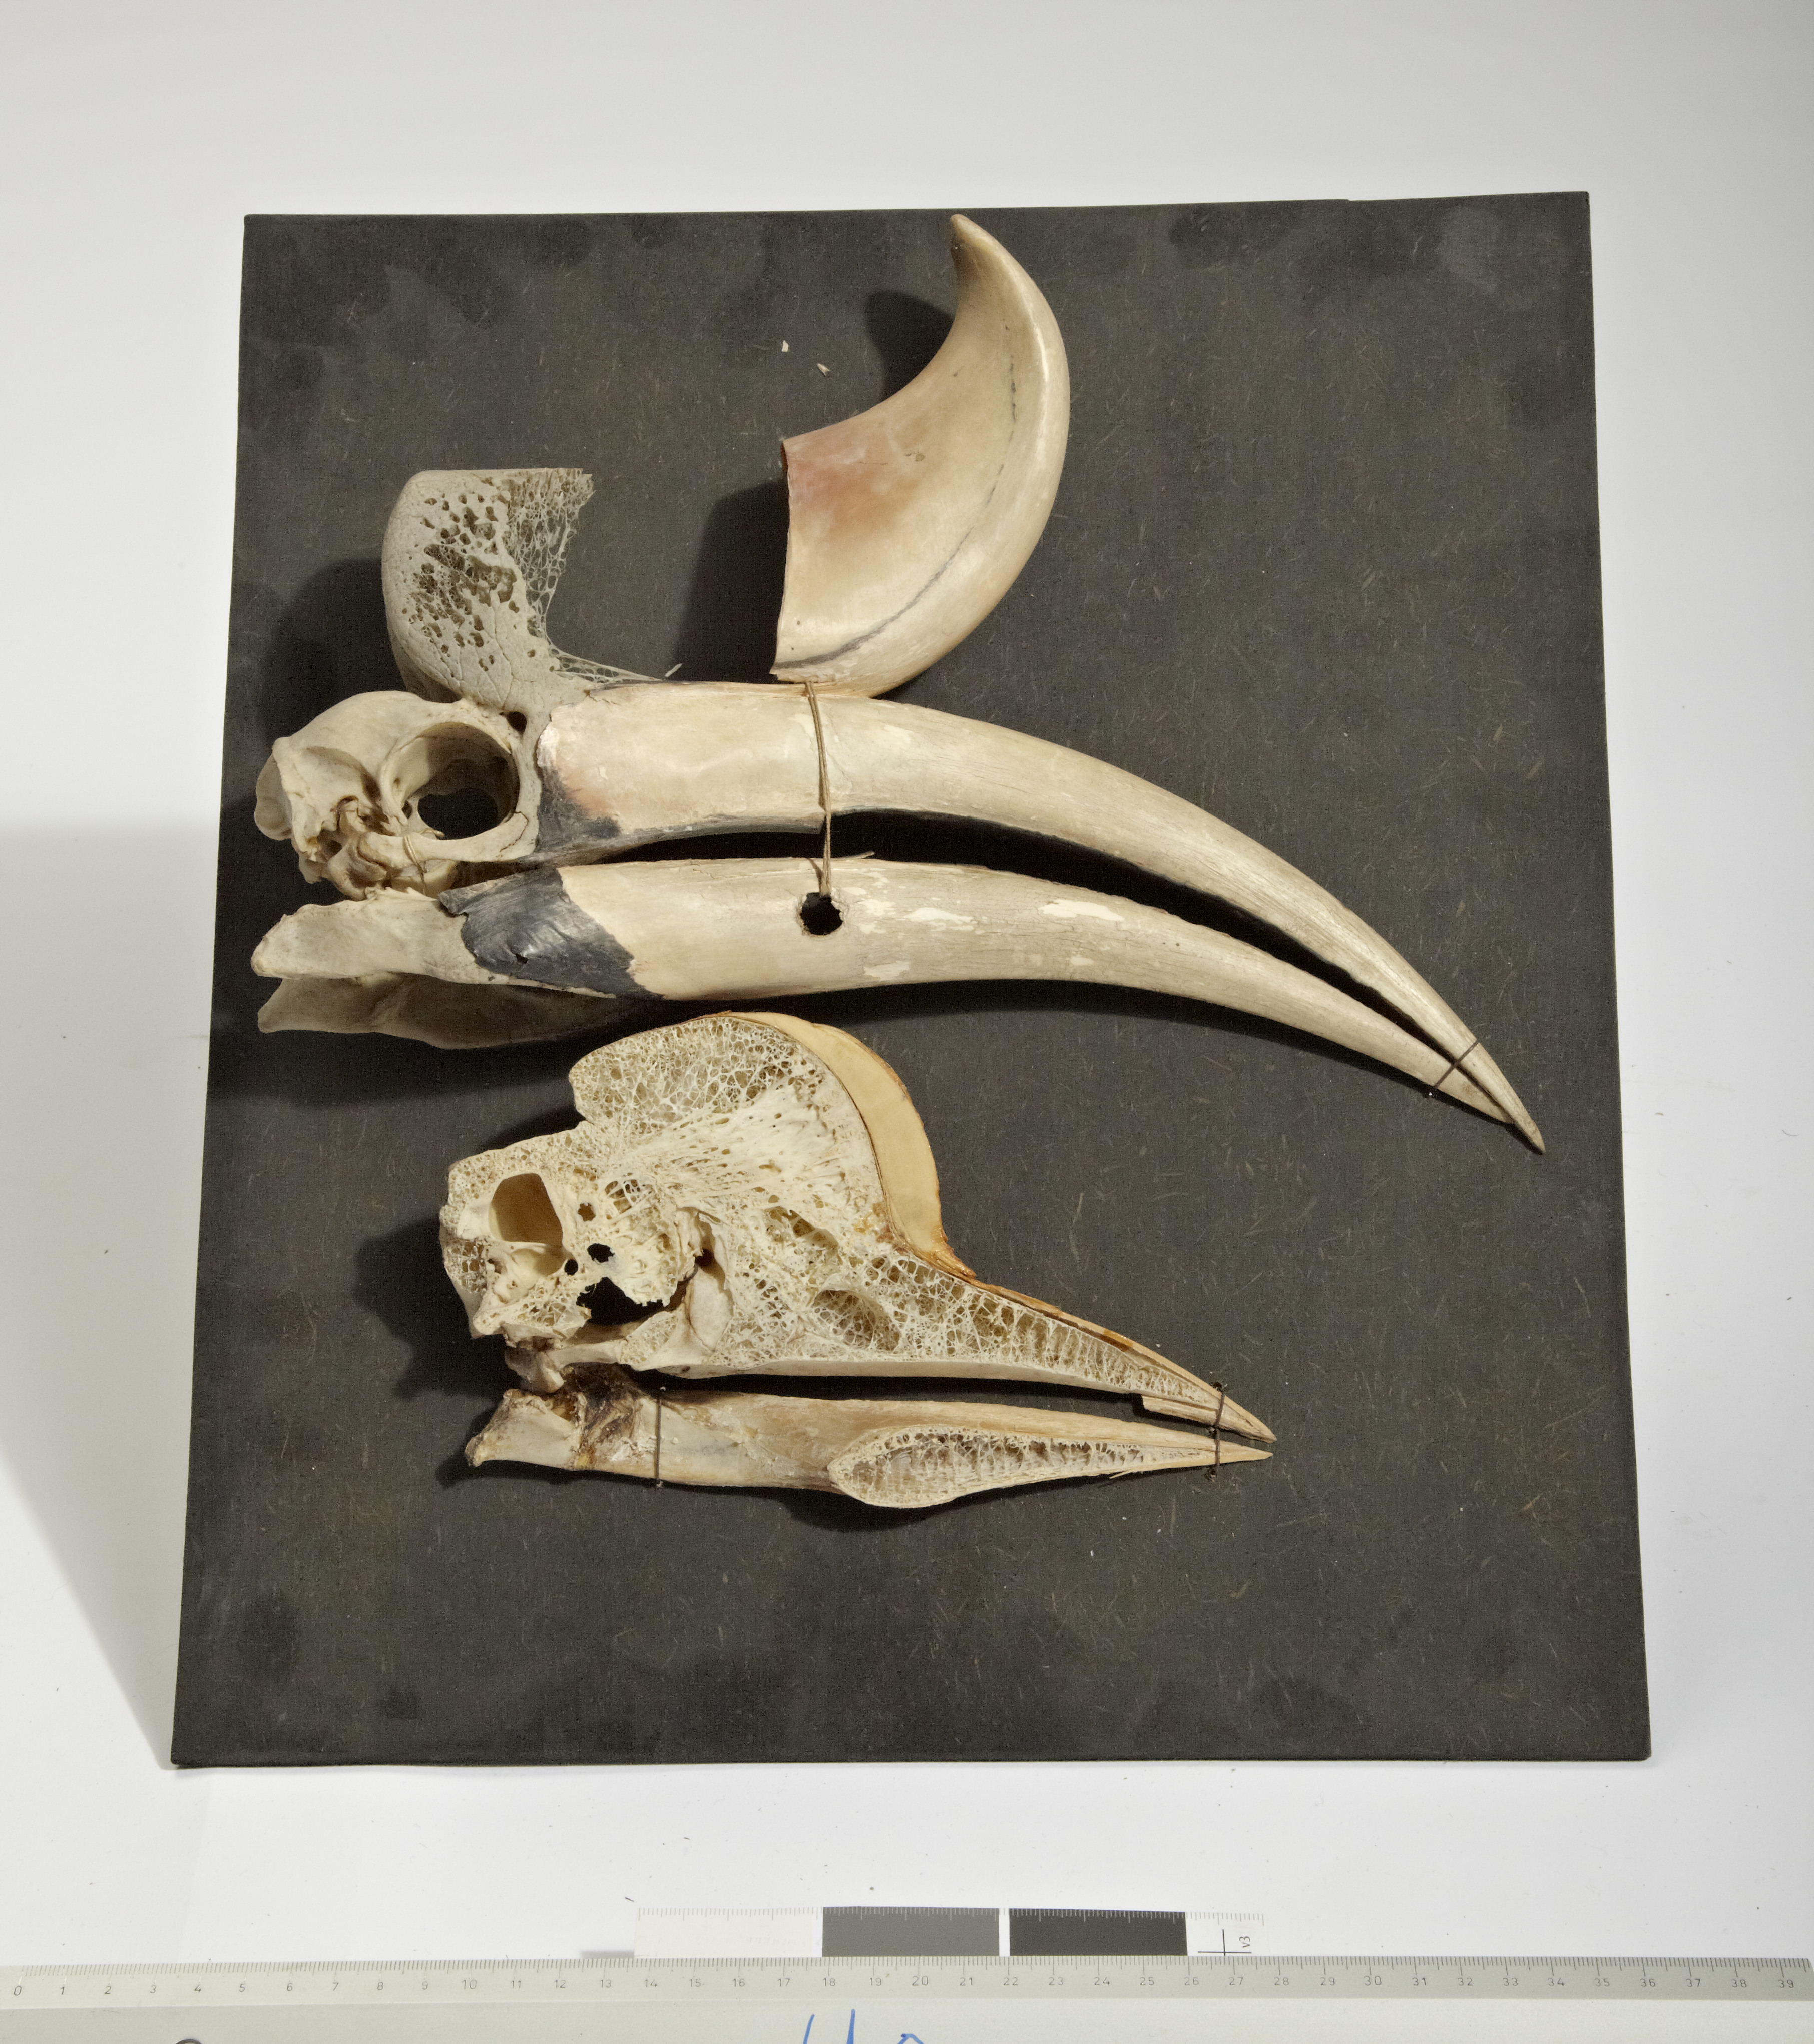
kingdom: Animalia
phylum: Chordata
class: Aves
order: Bucerotiformes
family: Bucerotidae
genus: Buceros
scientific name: Buceros rhinoceros
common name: Rhinoceros hornbill
